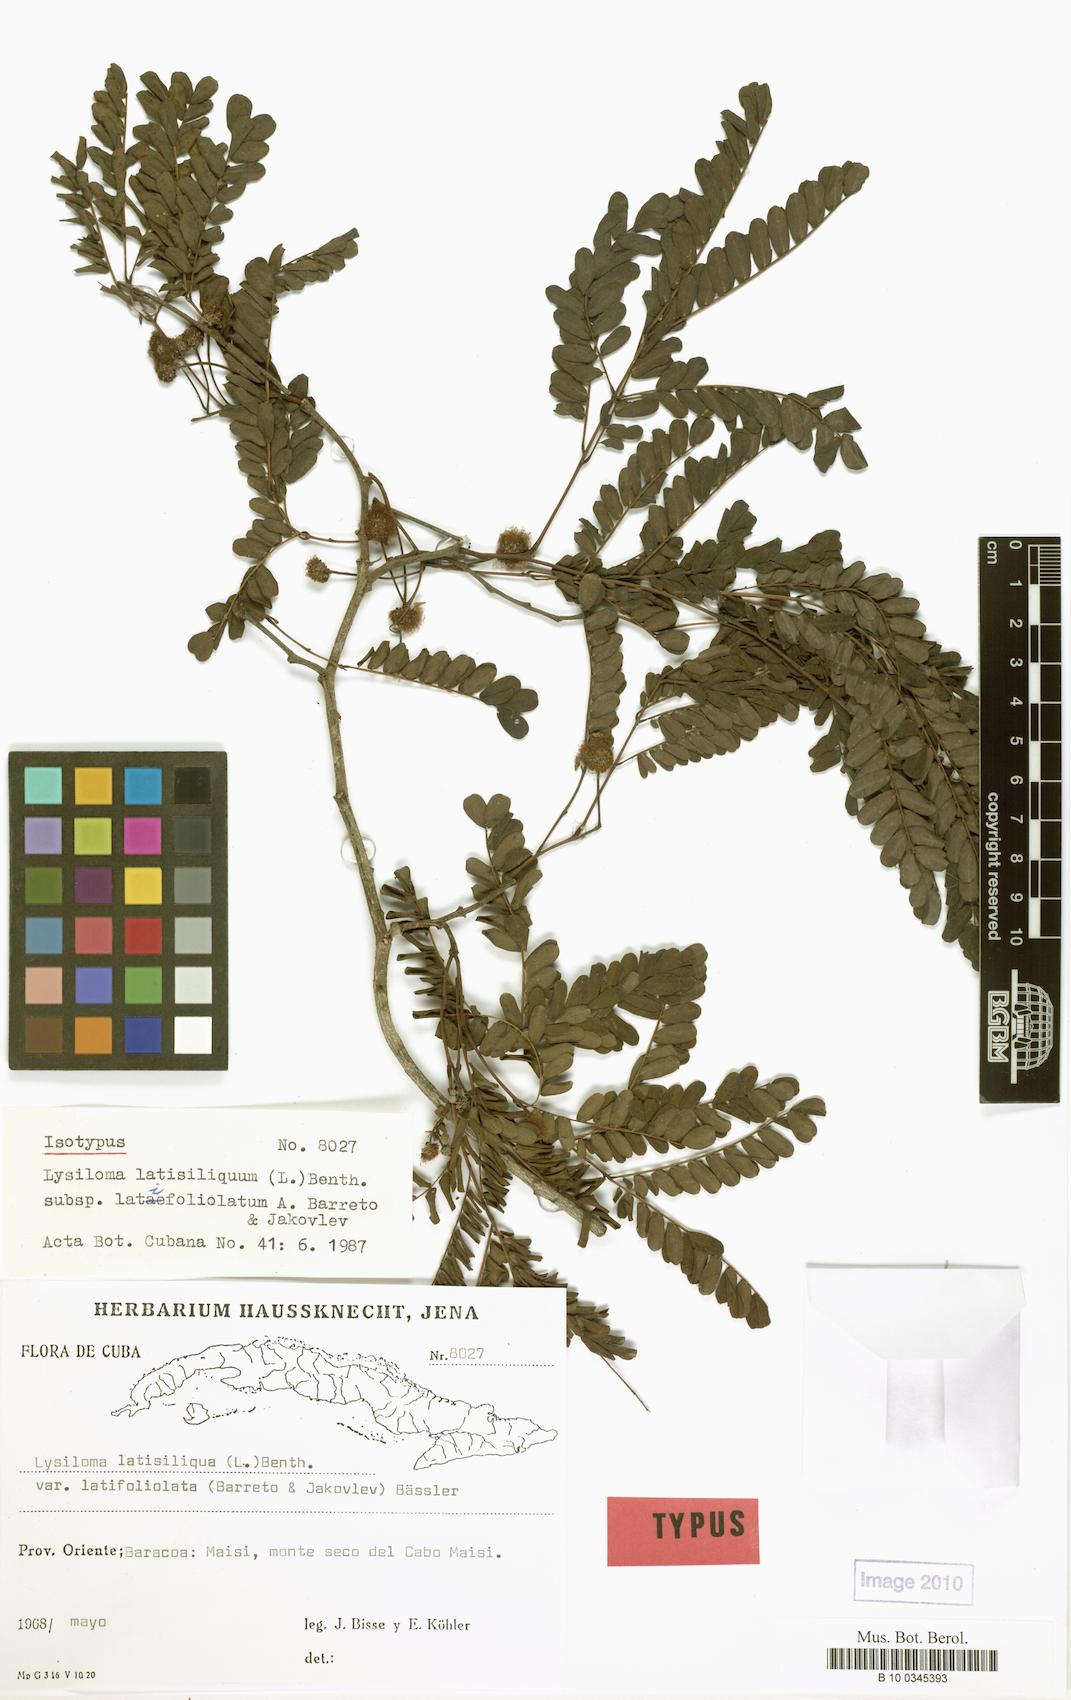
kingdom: Plantae
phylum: Tracheophyta
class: Magnoliopsida
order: Fabales
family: Fabaceae
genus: Lysiloma
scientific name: Lysiloma latisiliquum
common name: Wild tamarind
